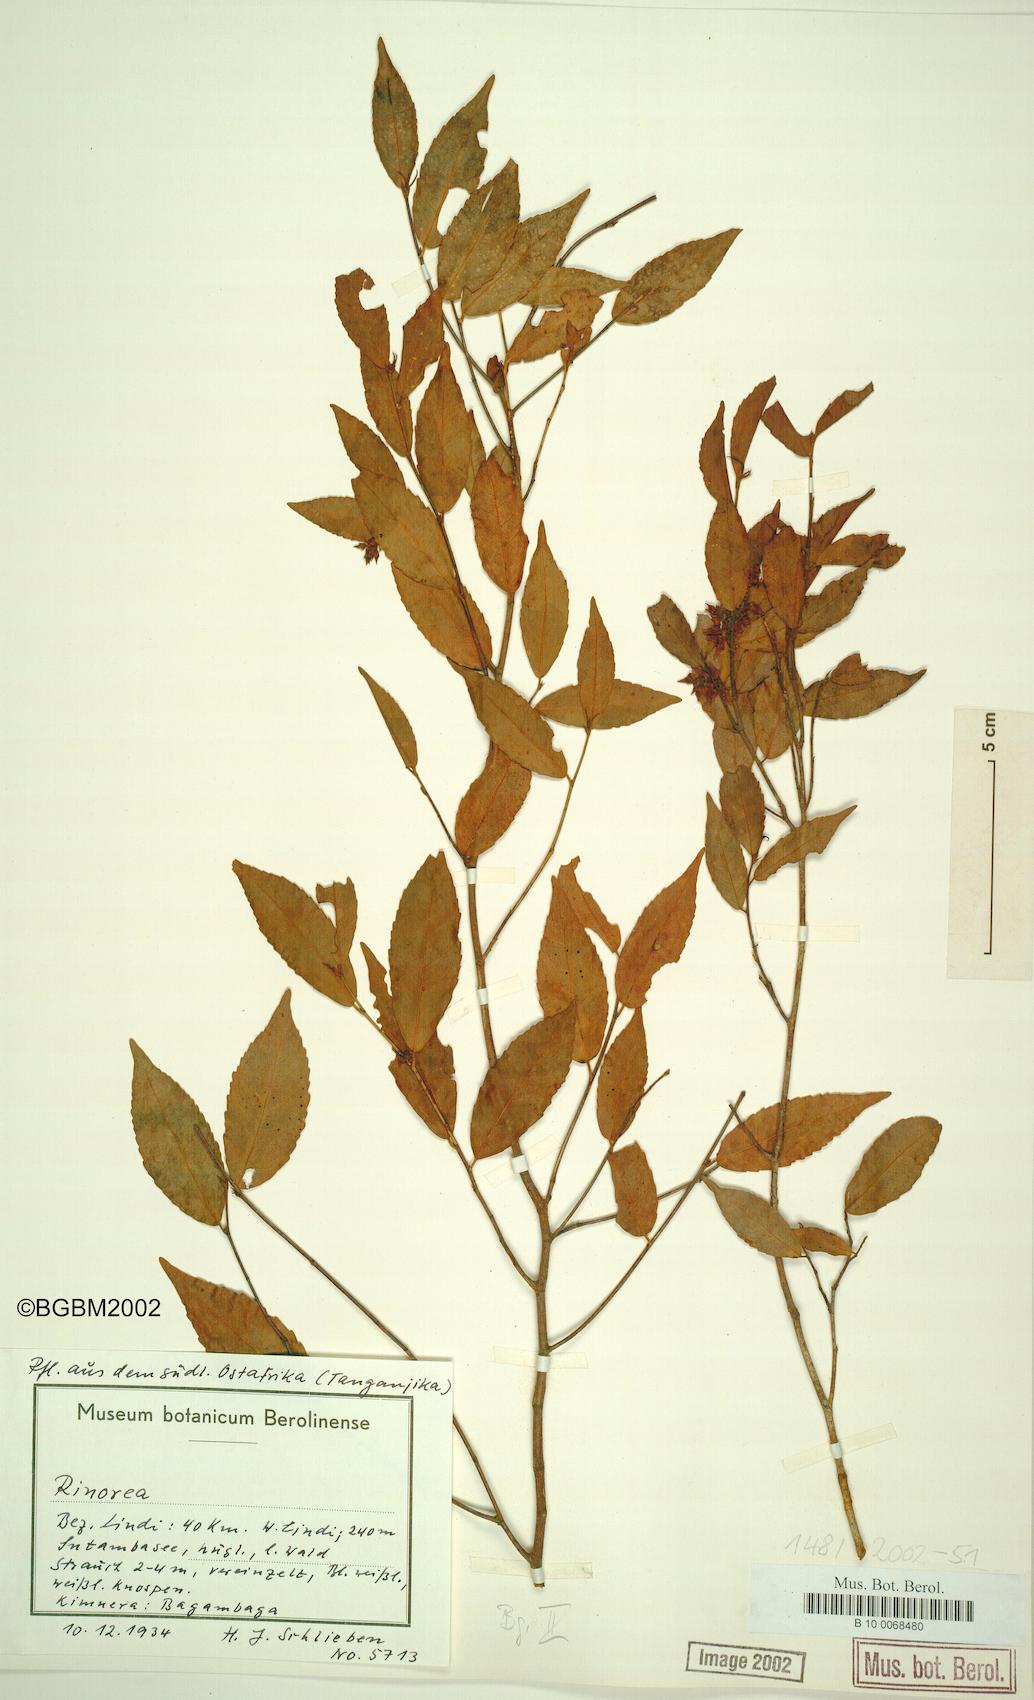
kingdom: Plantae
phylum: Tracheophyta
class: Magnoliopsida
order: Malpighiales
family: Violaceae
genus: Rinorea
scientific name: Rinorea
